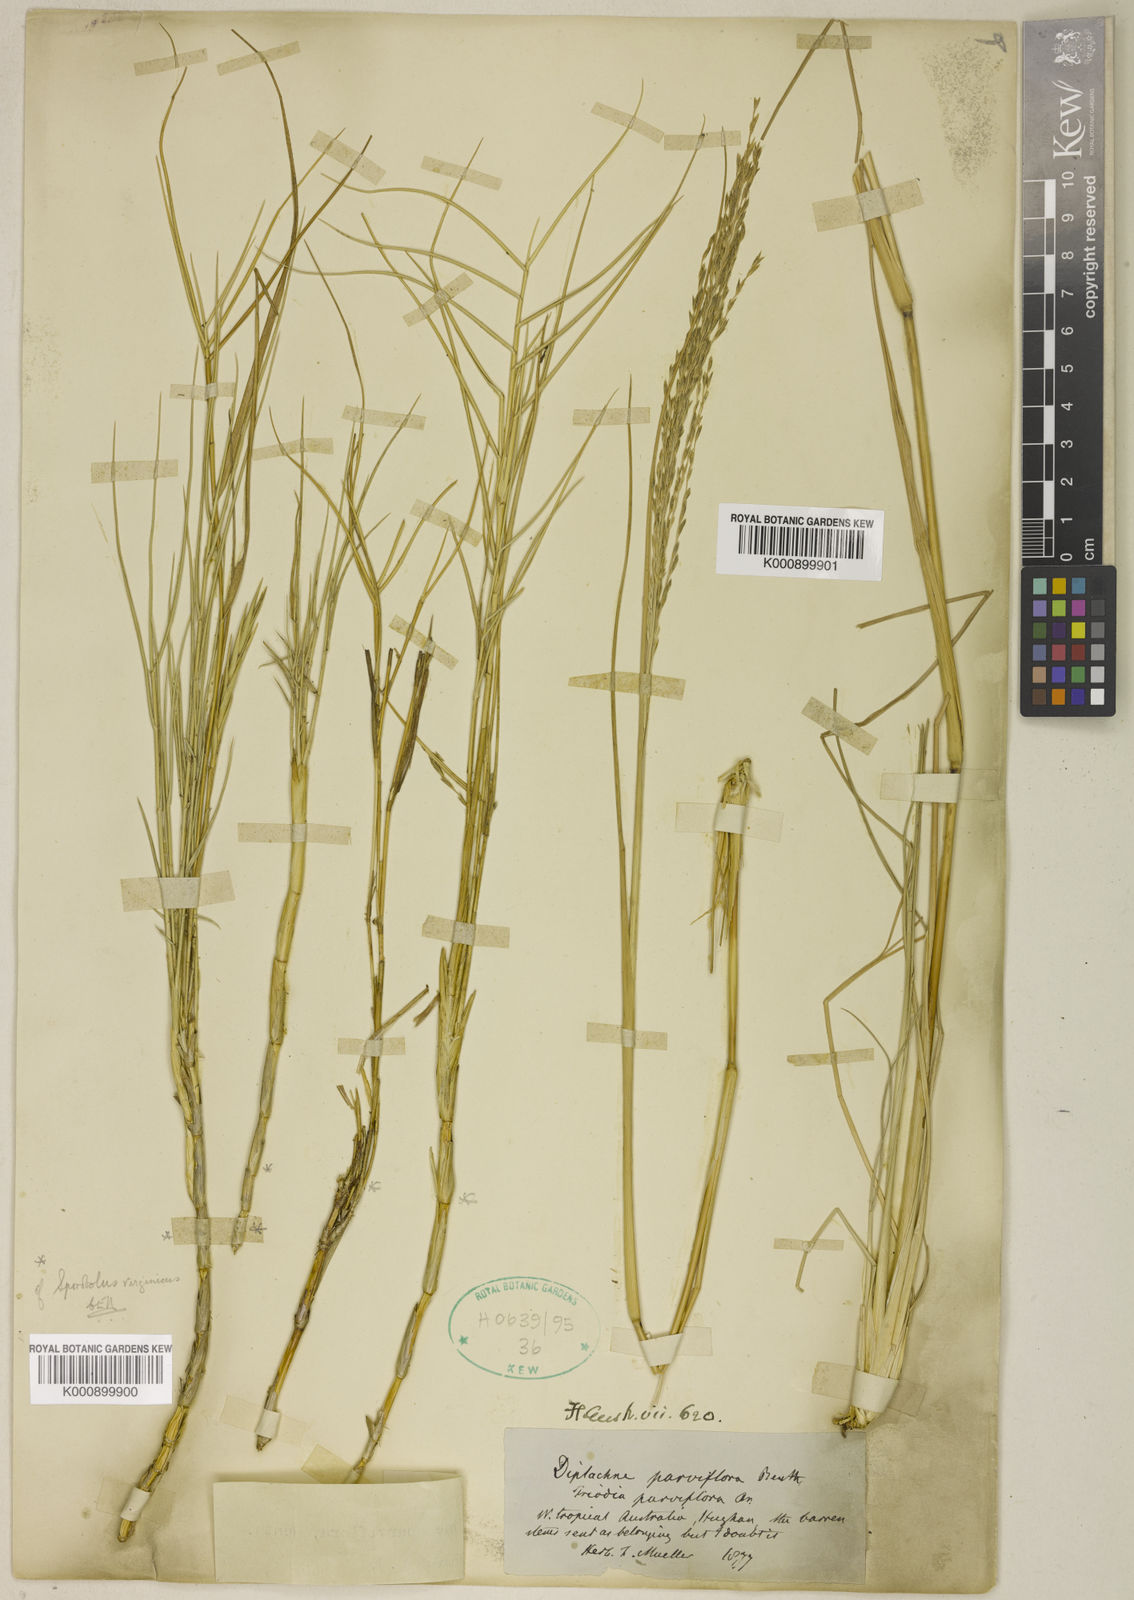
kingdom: Plantae
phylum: Tracheophyta
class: Liliopsida
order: Poales
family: Poaceae
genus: Diplachne
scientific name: Diplachne fusca
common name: Brown beetle grass
